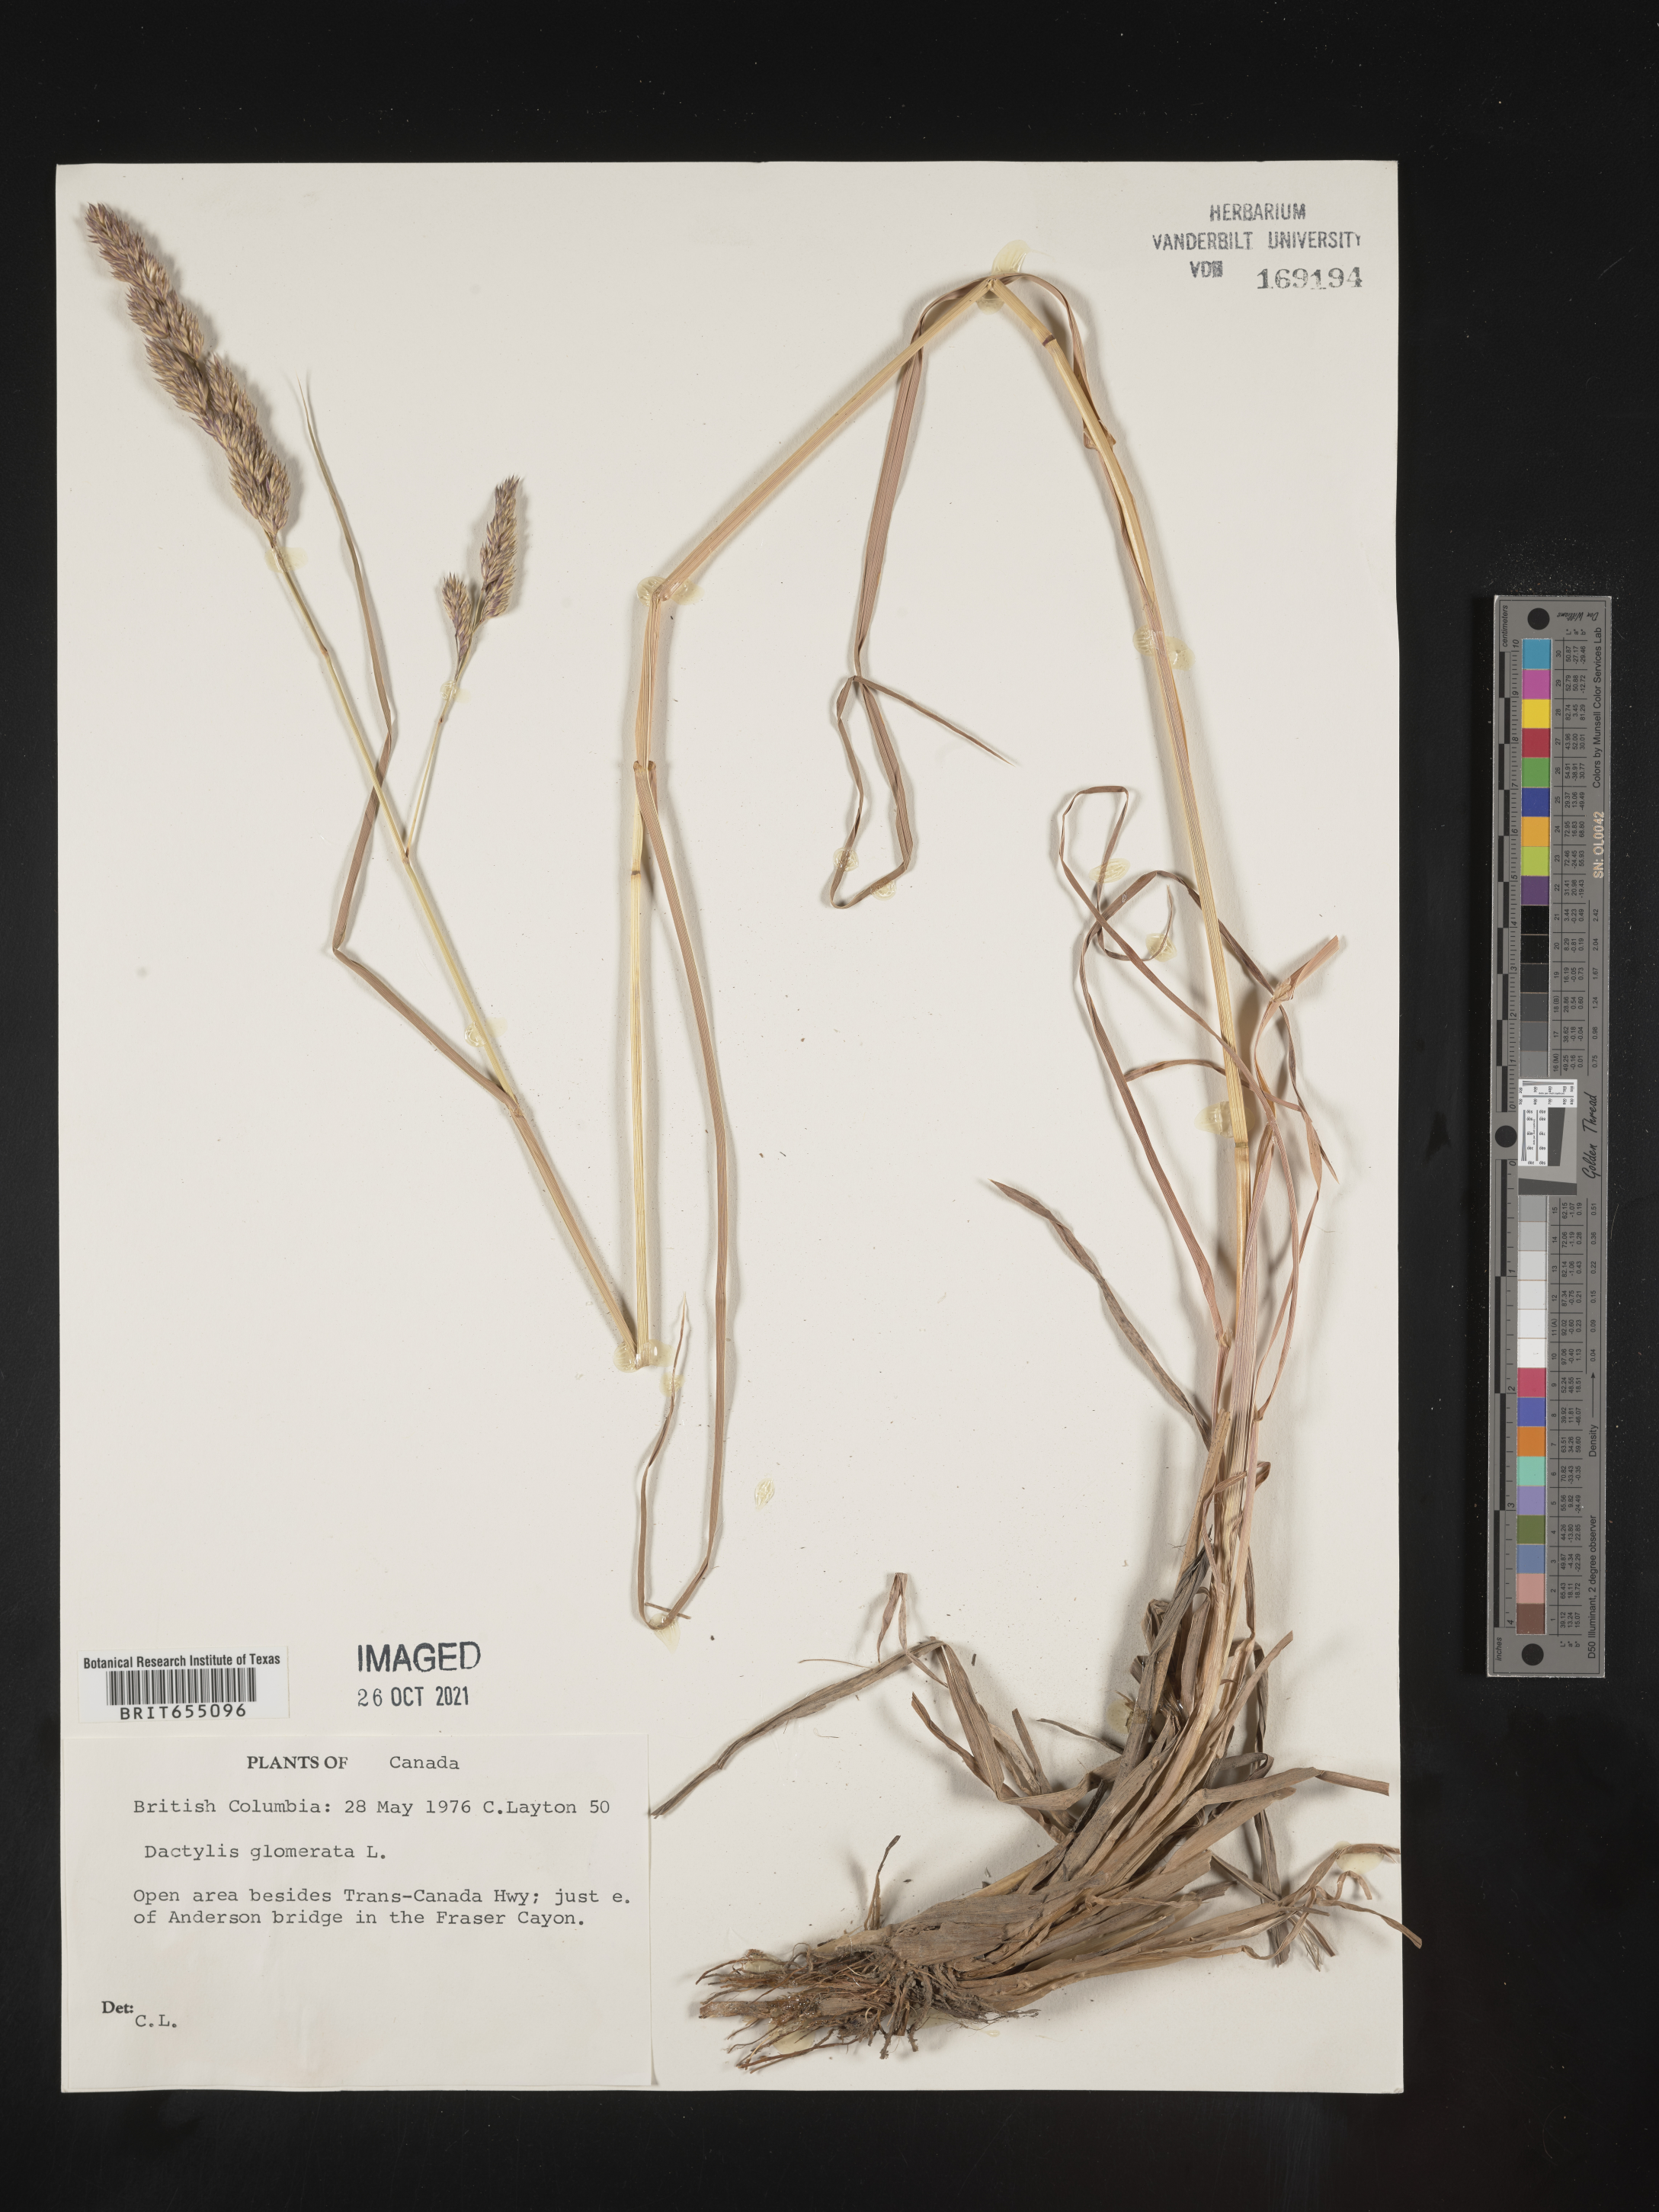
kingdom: Plantae
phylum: Tracheophyta
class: Liliopsida
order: Poales
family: Poaceae
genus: Dactylis
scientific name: Dactylis
